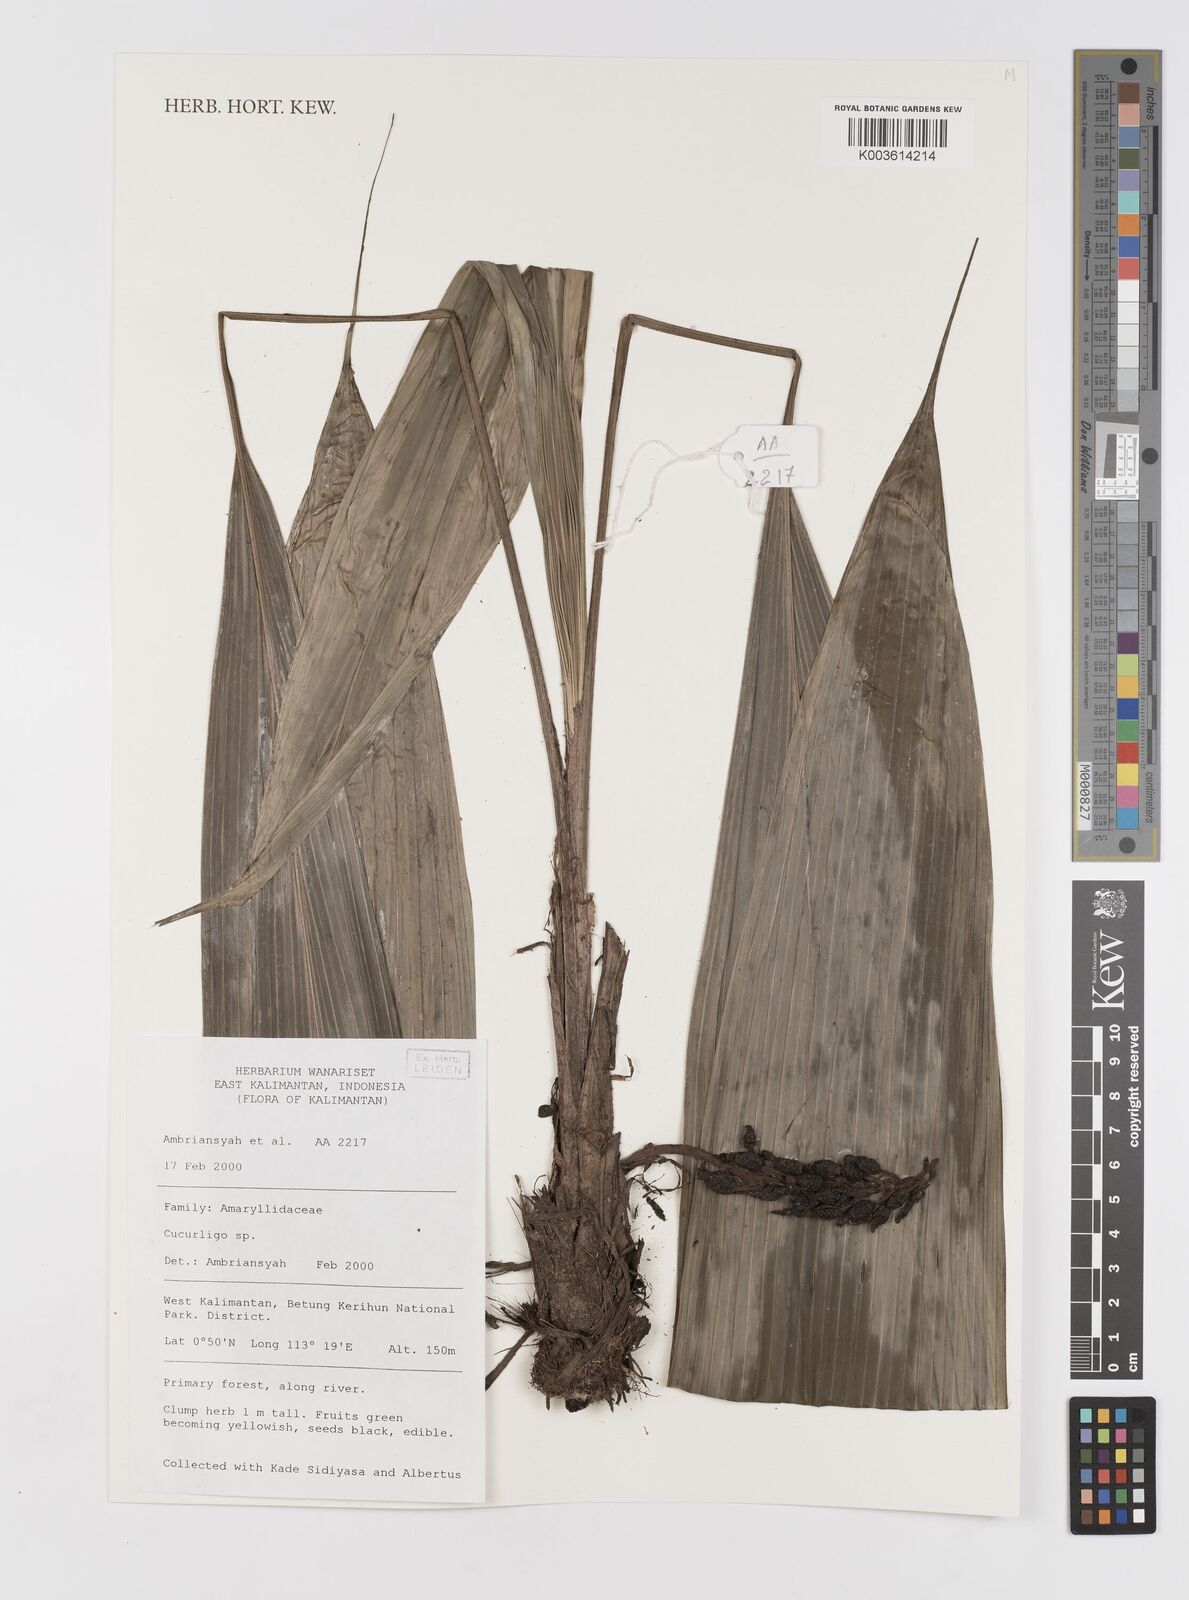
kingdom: Plantae
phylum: Tracheophyta
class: Liliopsida
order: Asparagales
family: Hypoxidaceae
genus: Curculigo
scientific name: Curculigo
